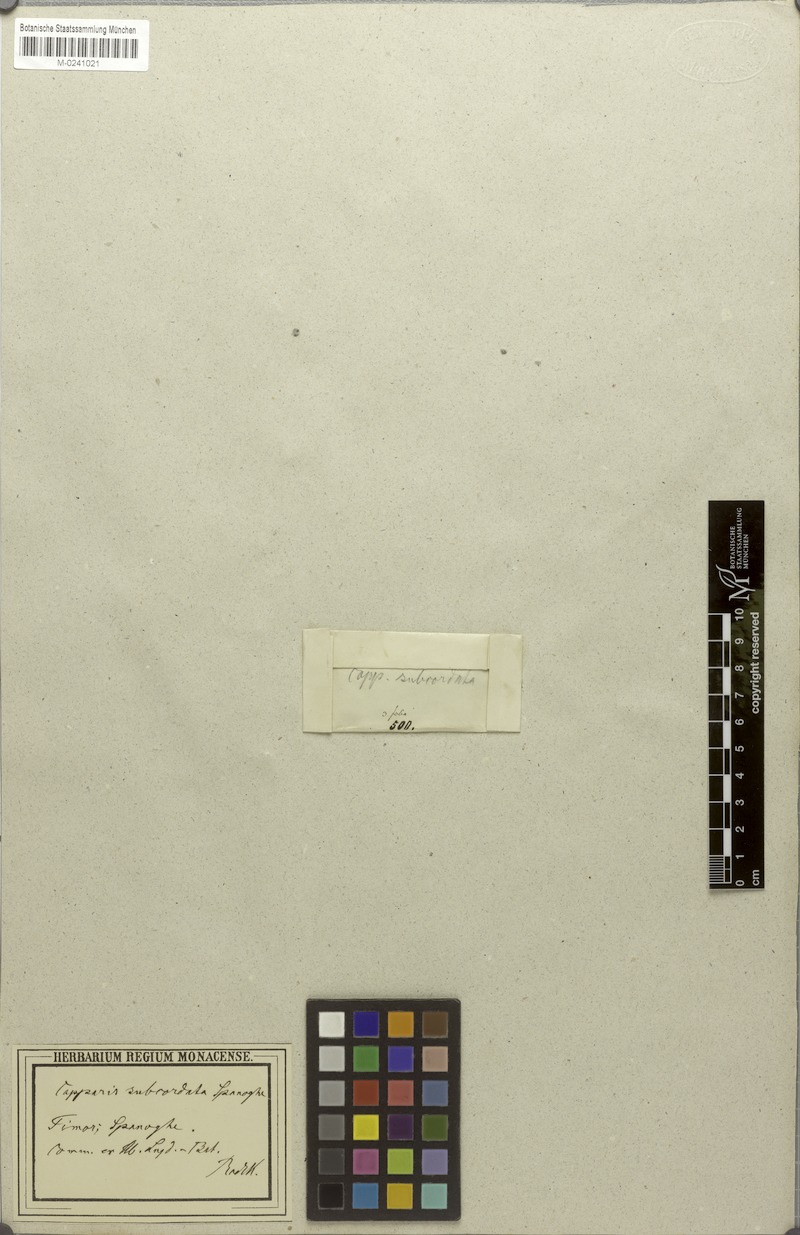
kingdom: Plantae
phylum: Tracheophyta
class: Magnoliopsida
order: Brassicales
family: Capparaceae
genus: Capparis
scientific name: Capparis quiniflora
